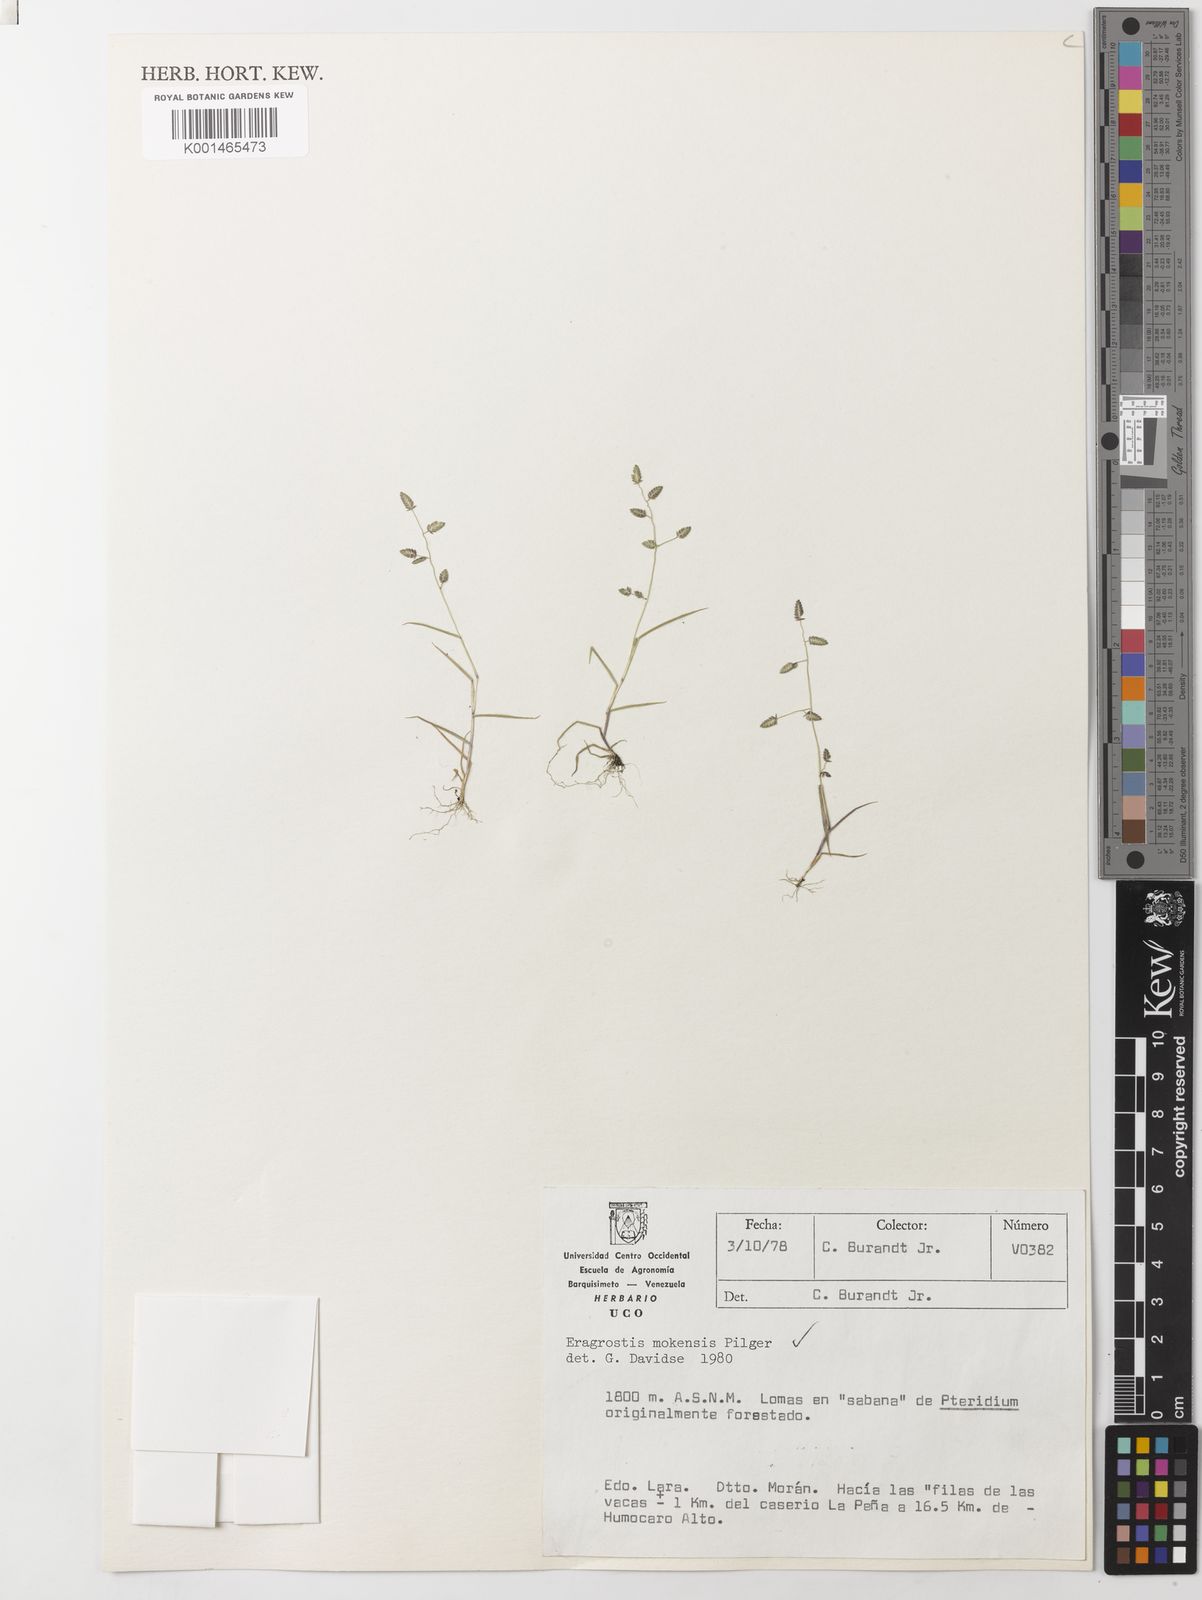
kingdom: Plantae
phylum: Tracheophyta
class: Liliopsida
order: Poales
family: Poaceae
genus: Eragrostis
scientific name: Eragrostis mokensis
